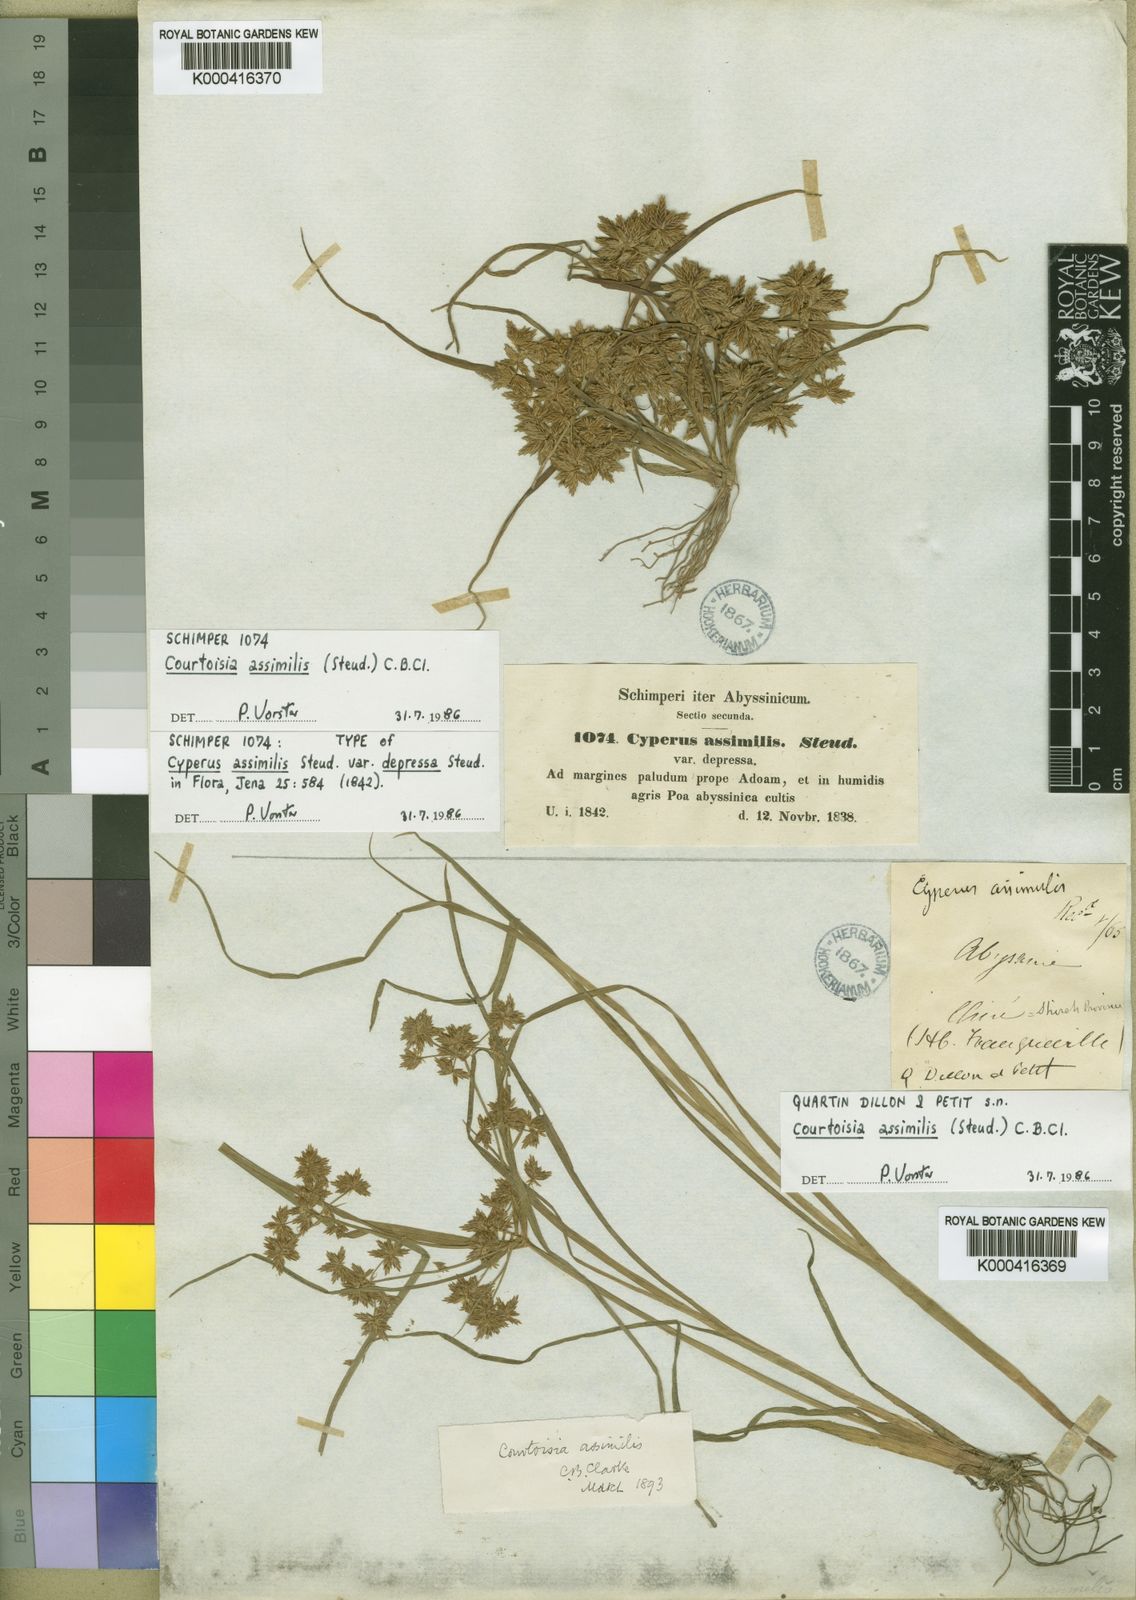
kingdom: Plantae
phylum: Tracheophyta
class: Liliopsida
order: Poales
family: Cyperaceae
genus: Cyperus
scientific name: Cyperus assimilis
